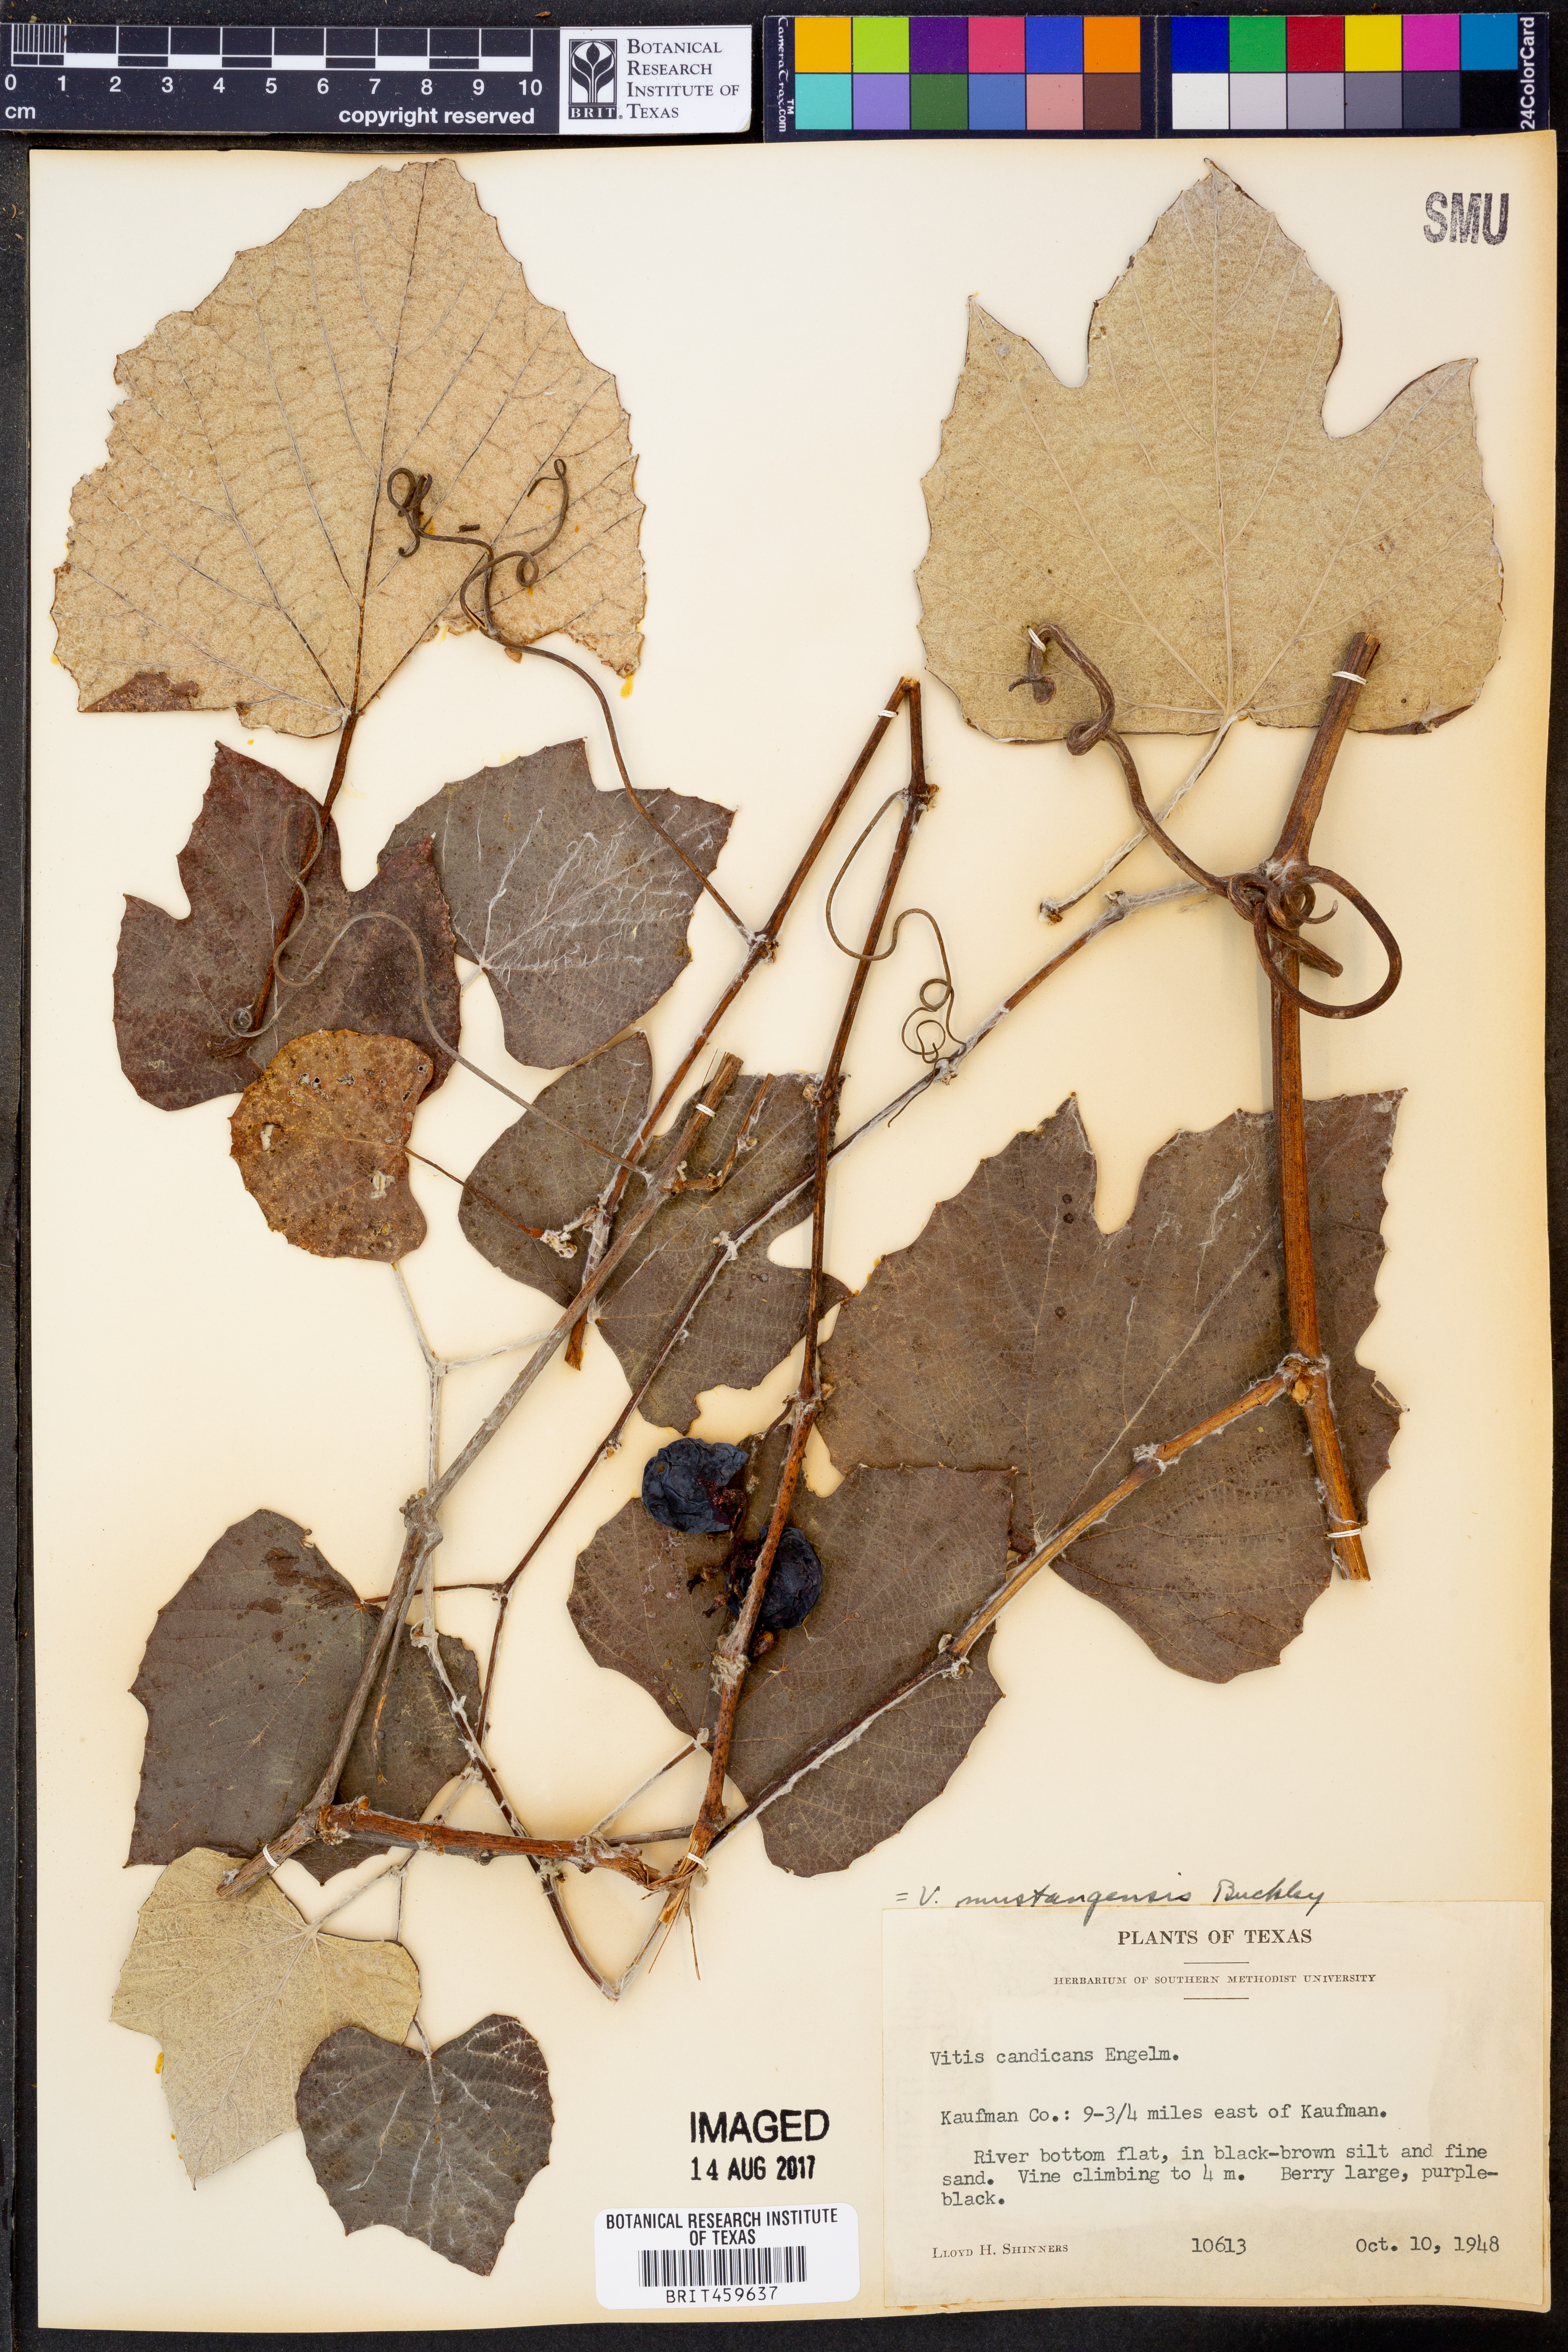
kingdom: Plantae
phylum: Tracheophyta
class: Magnoliopsida
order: Vitales
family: Vitaceae
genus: Vitis
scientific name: Vitis mustangensis
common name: Mustang grape
